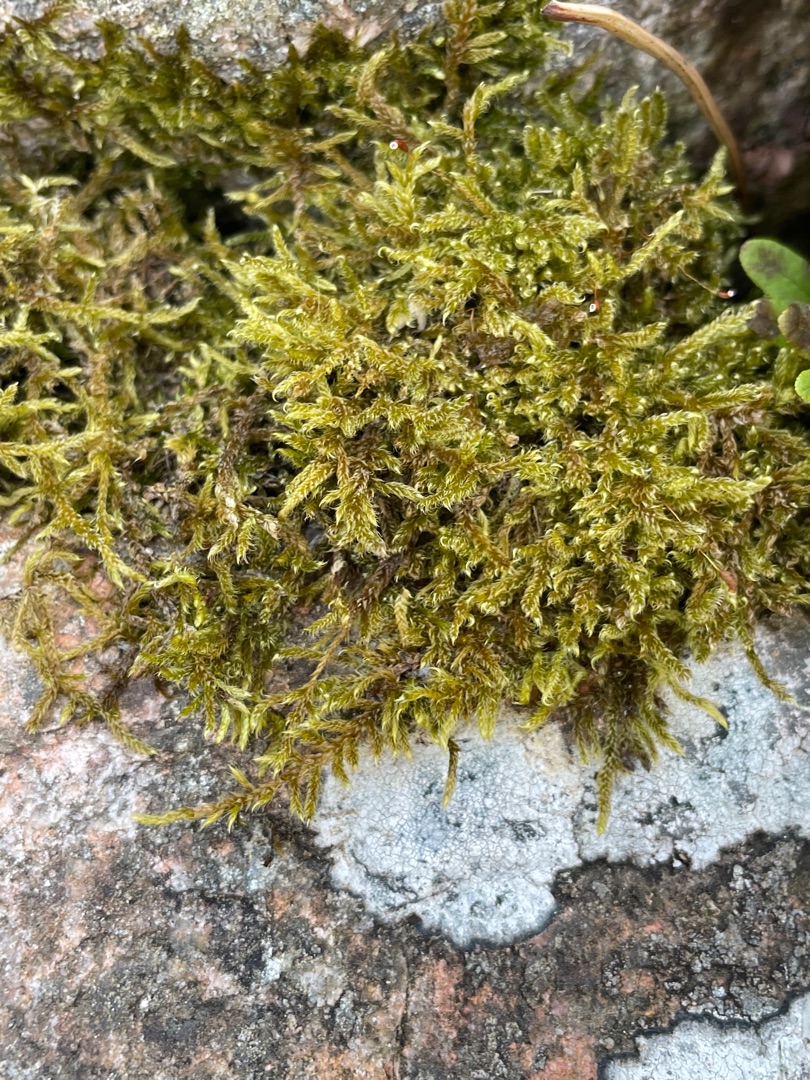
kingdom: Plantae
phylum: Bryophyta
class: Bryopsida
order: Hypnales
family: Hypnaceae
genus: Hypnum
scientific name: Hypnum cupressiforme
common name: Almindelig cypresmos
